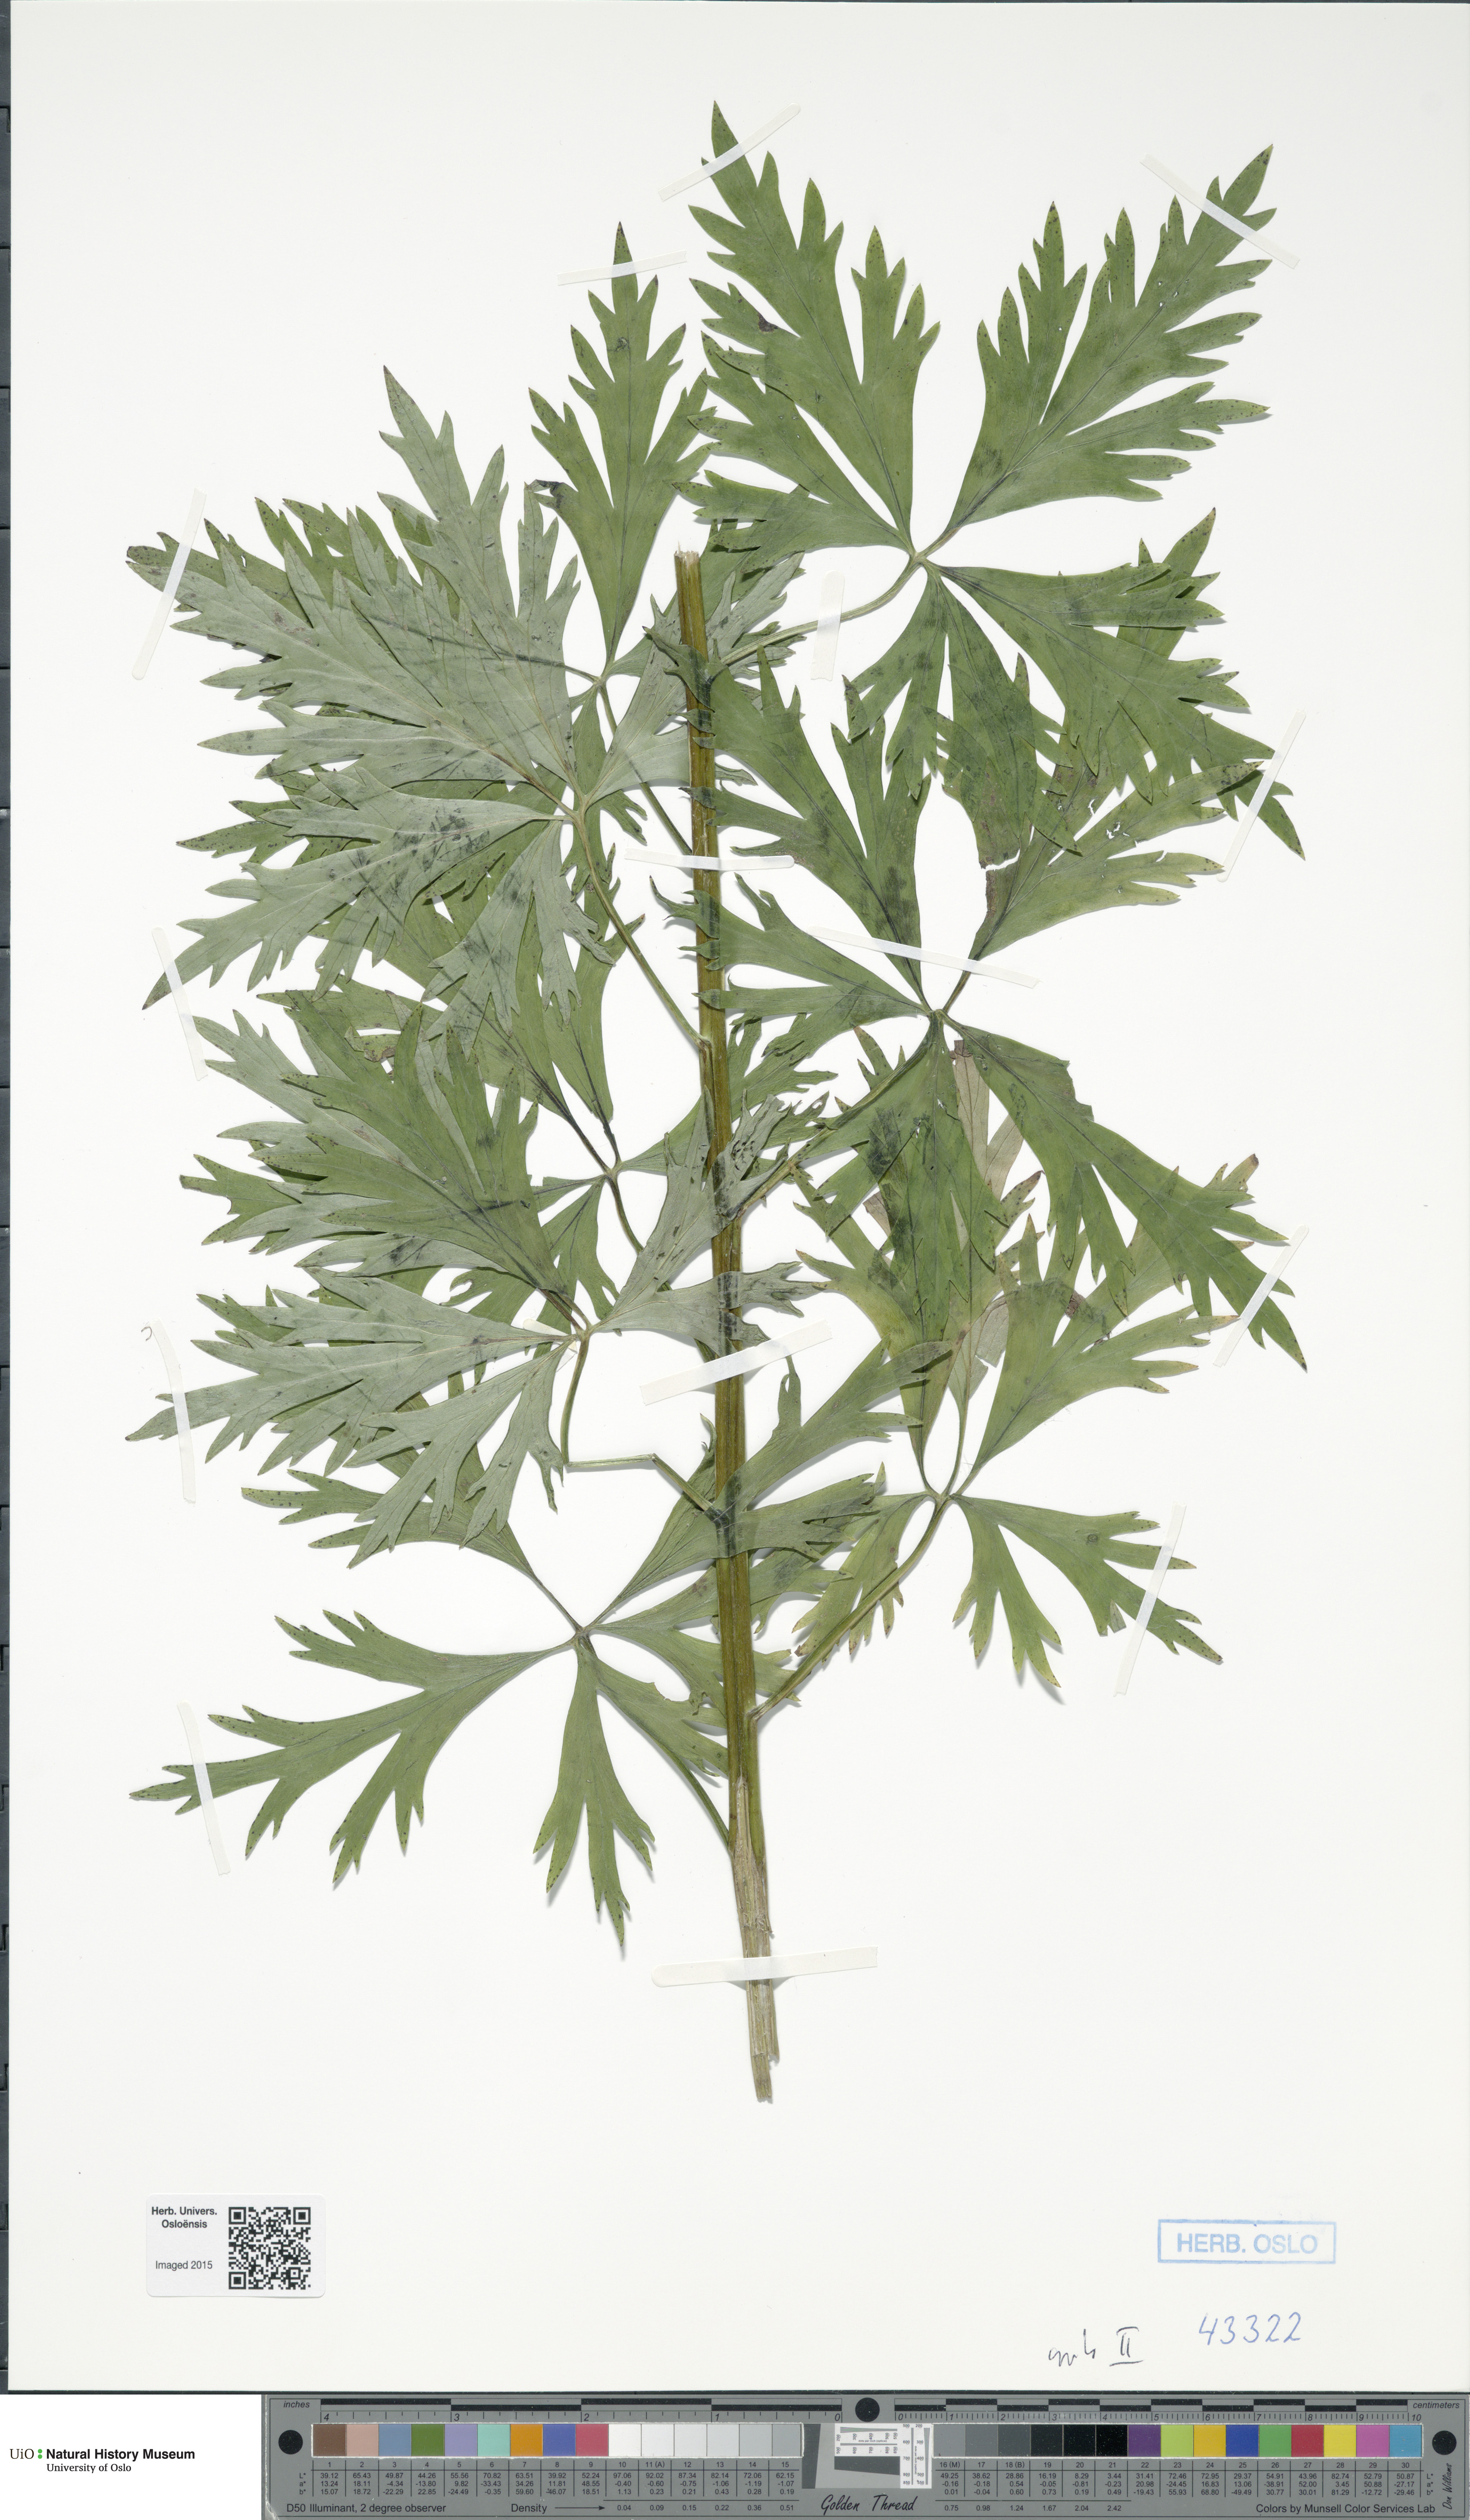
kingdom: Plantae
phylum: Tracheophyta
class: Magnoliopsida
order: Ranunculales
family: Ranunculaceae
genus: Aconitum
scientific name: Aconitum cammarum
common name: Hybrid monk's-hood
